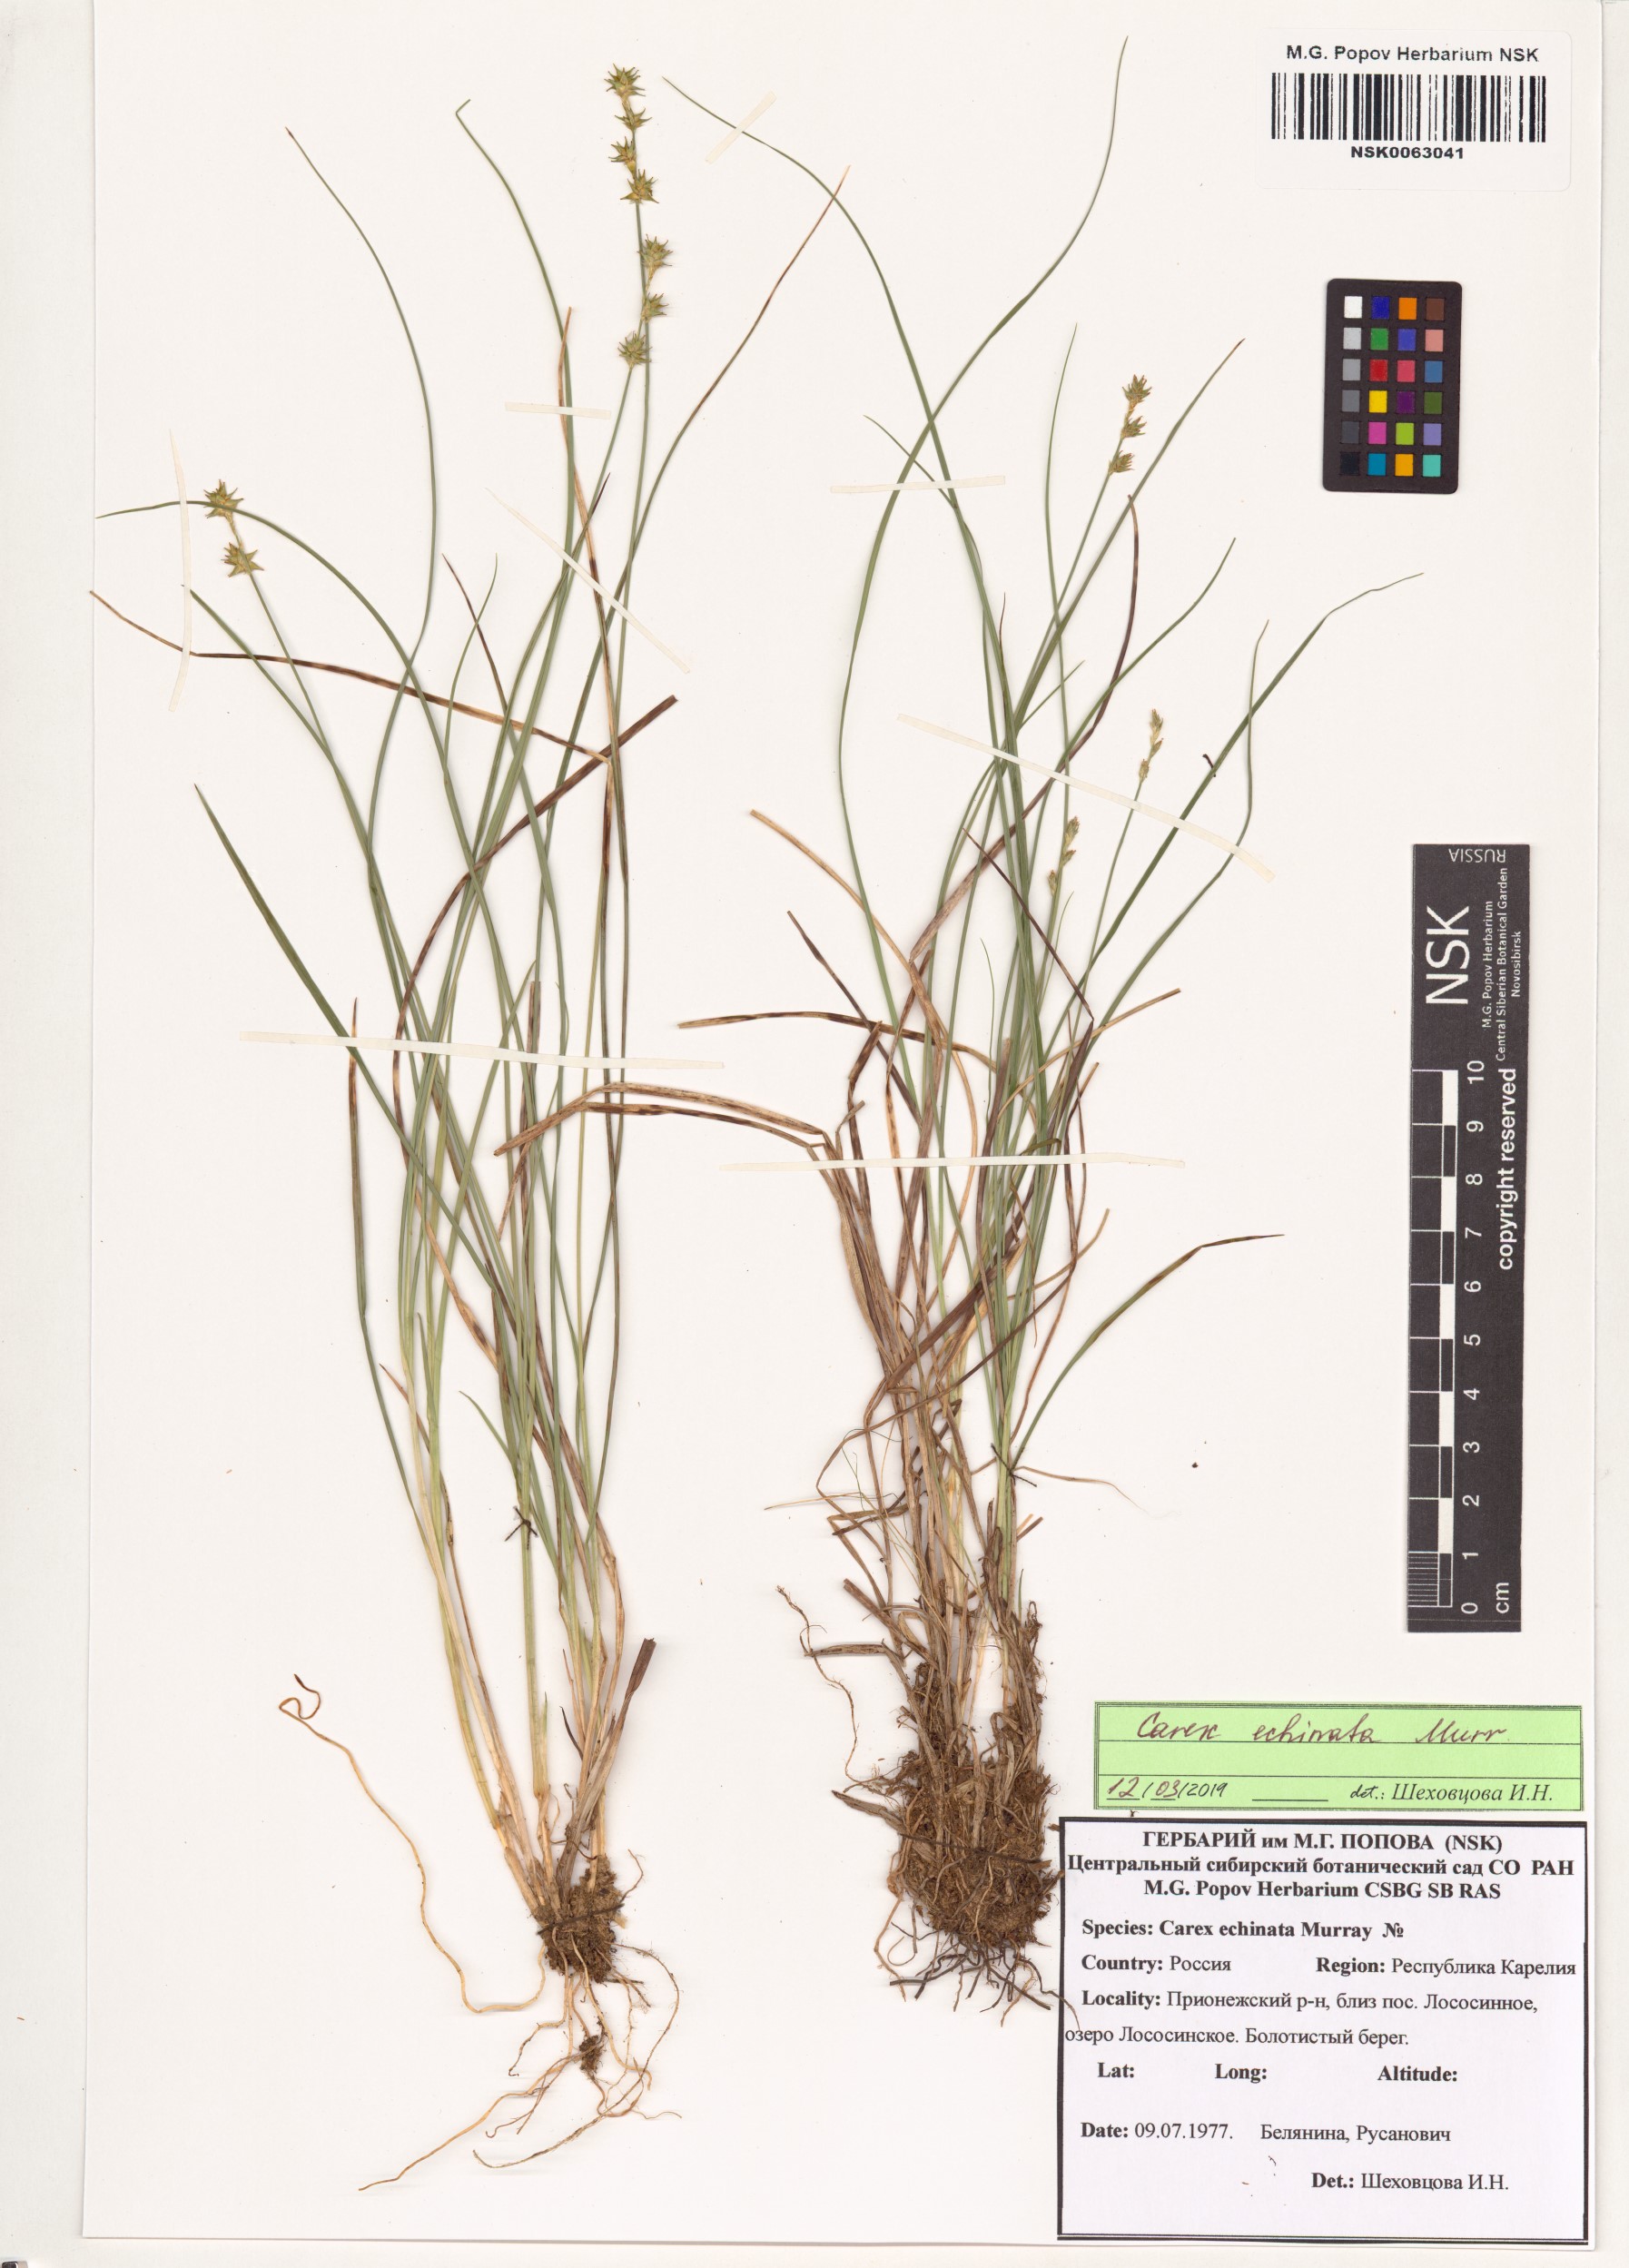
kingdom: Plantae
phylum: Tracheophyta
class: Liliopsida
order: Poales
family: Cyperaceae
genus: Carex
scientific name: Carex echinata
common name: Star sedge
